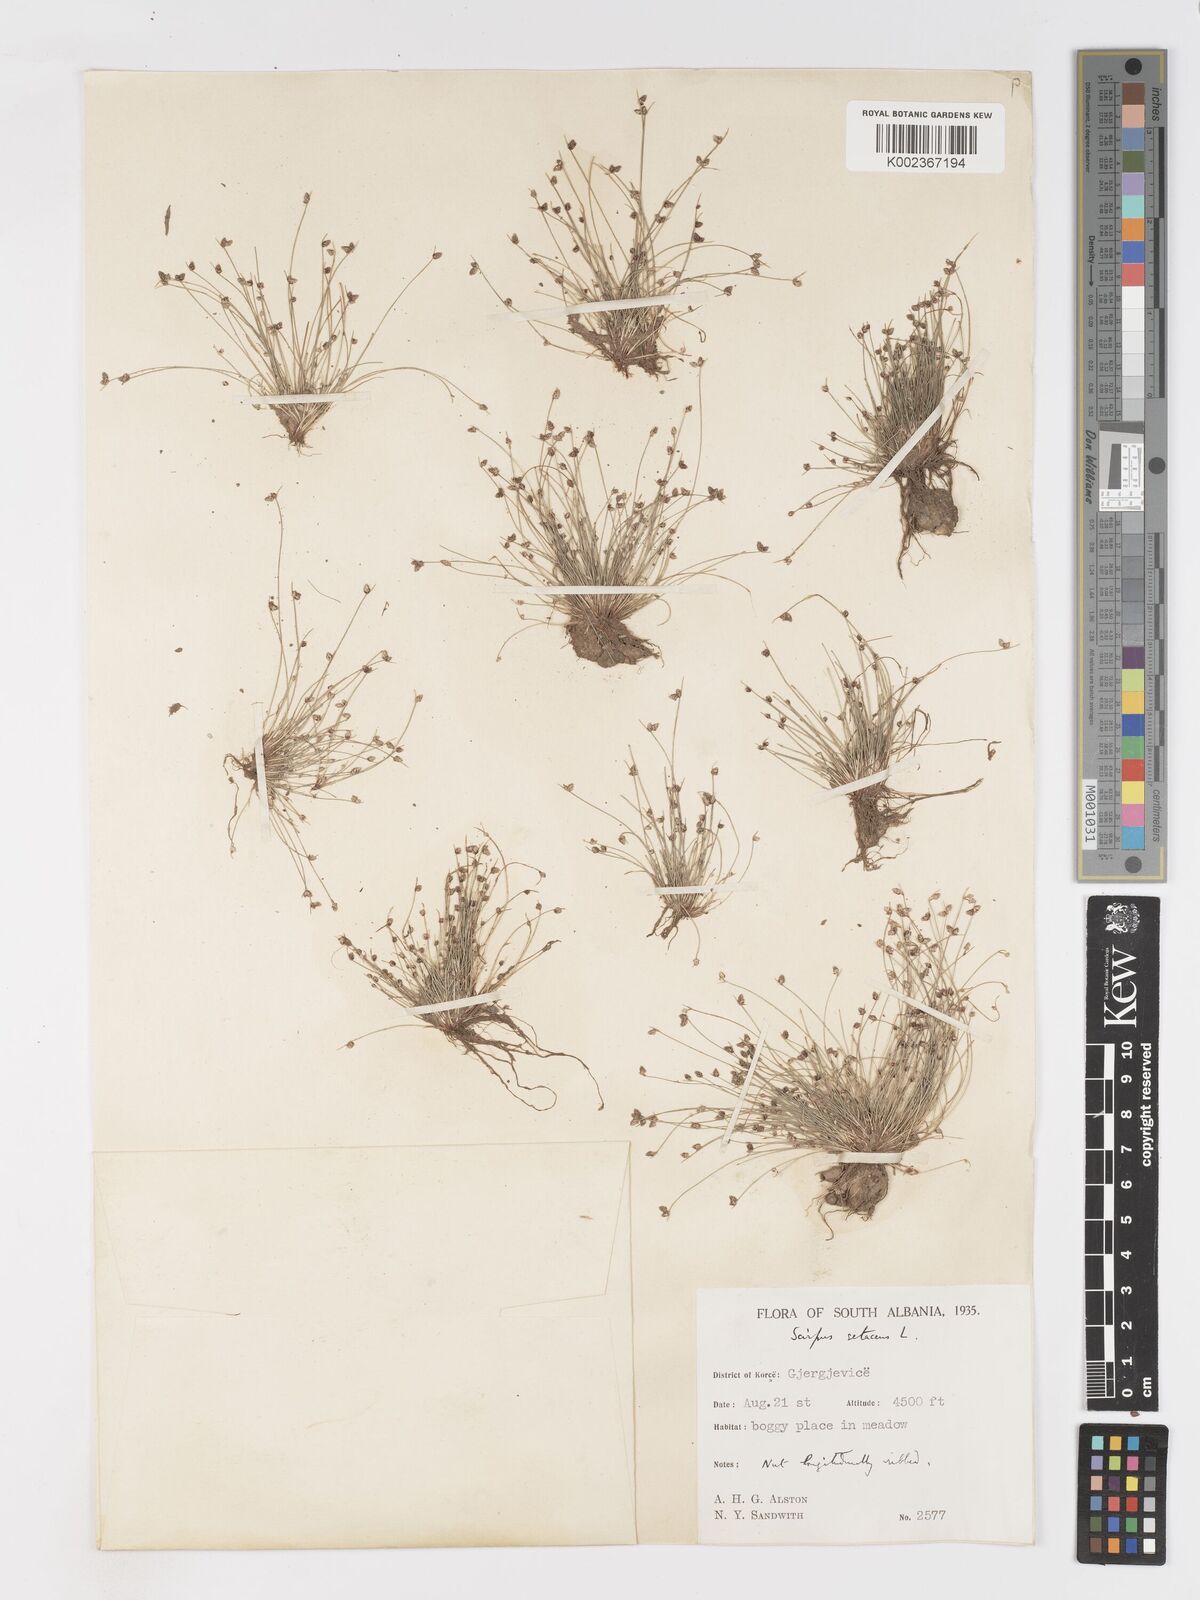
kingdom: Plantae
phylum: Tracheophyta
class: Liliopsida
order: Poales
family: Cyperaceae
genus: Isolepis
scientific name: Isolepis setacea
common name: Bristle club-rush
